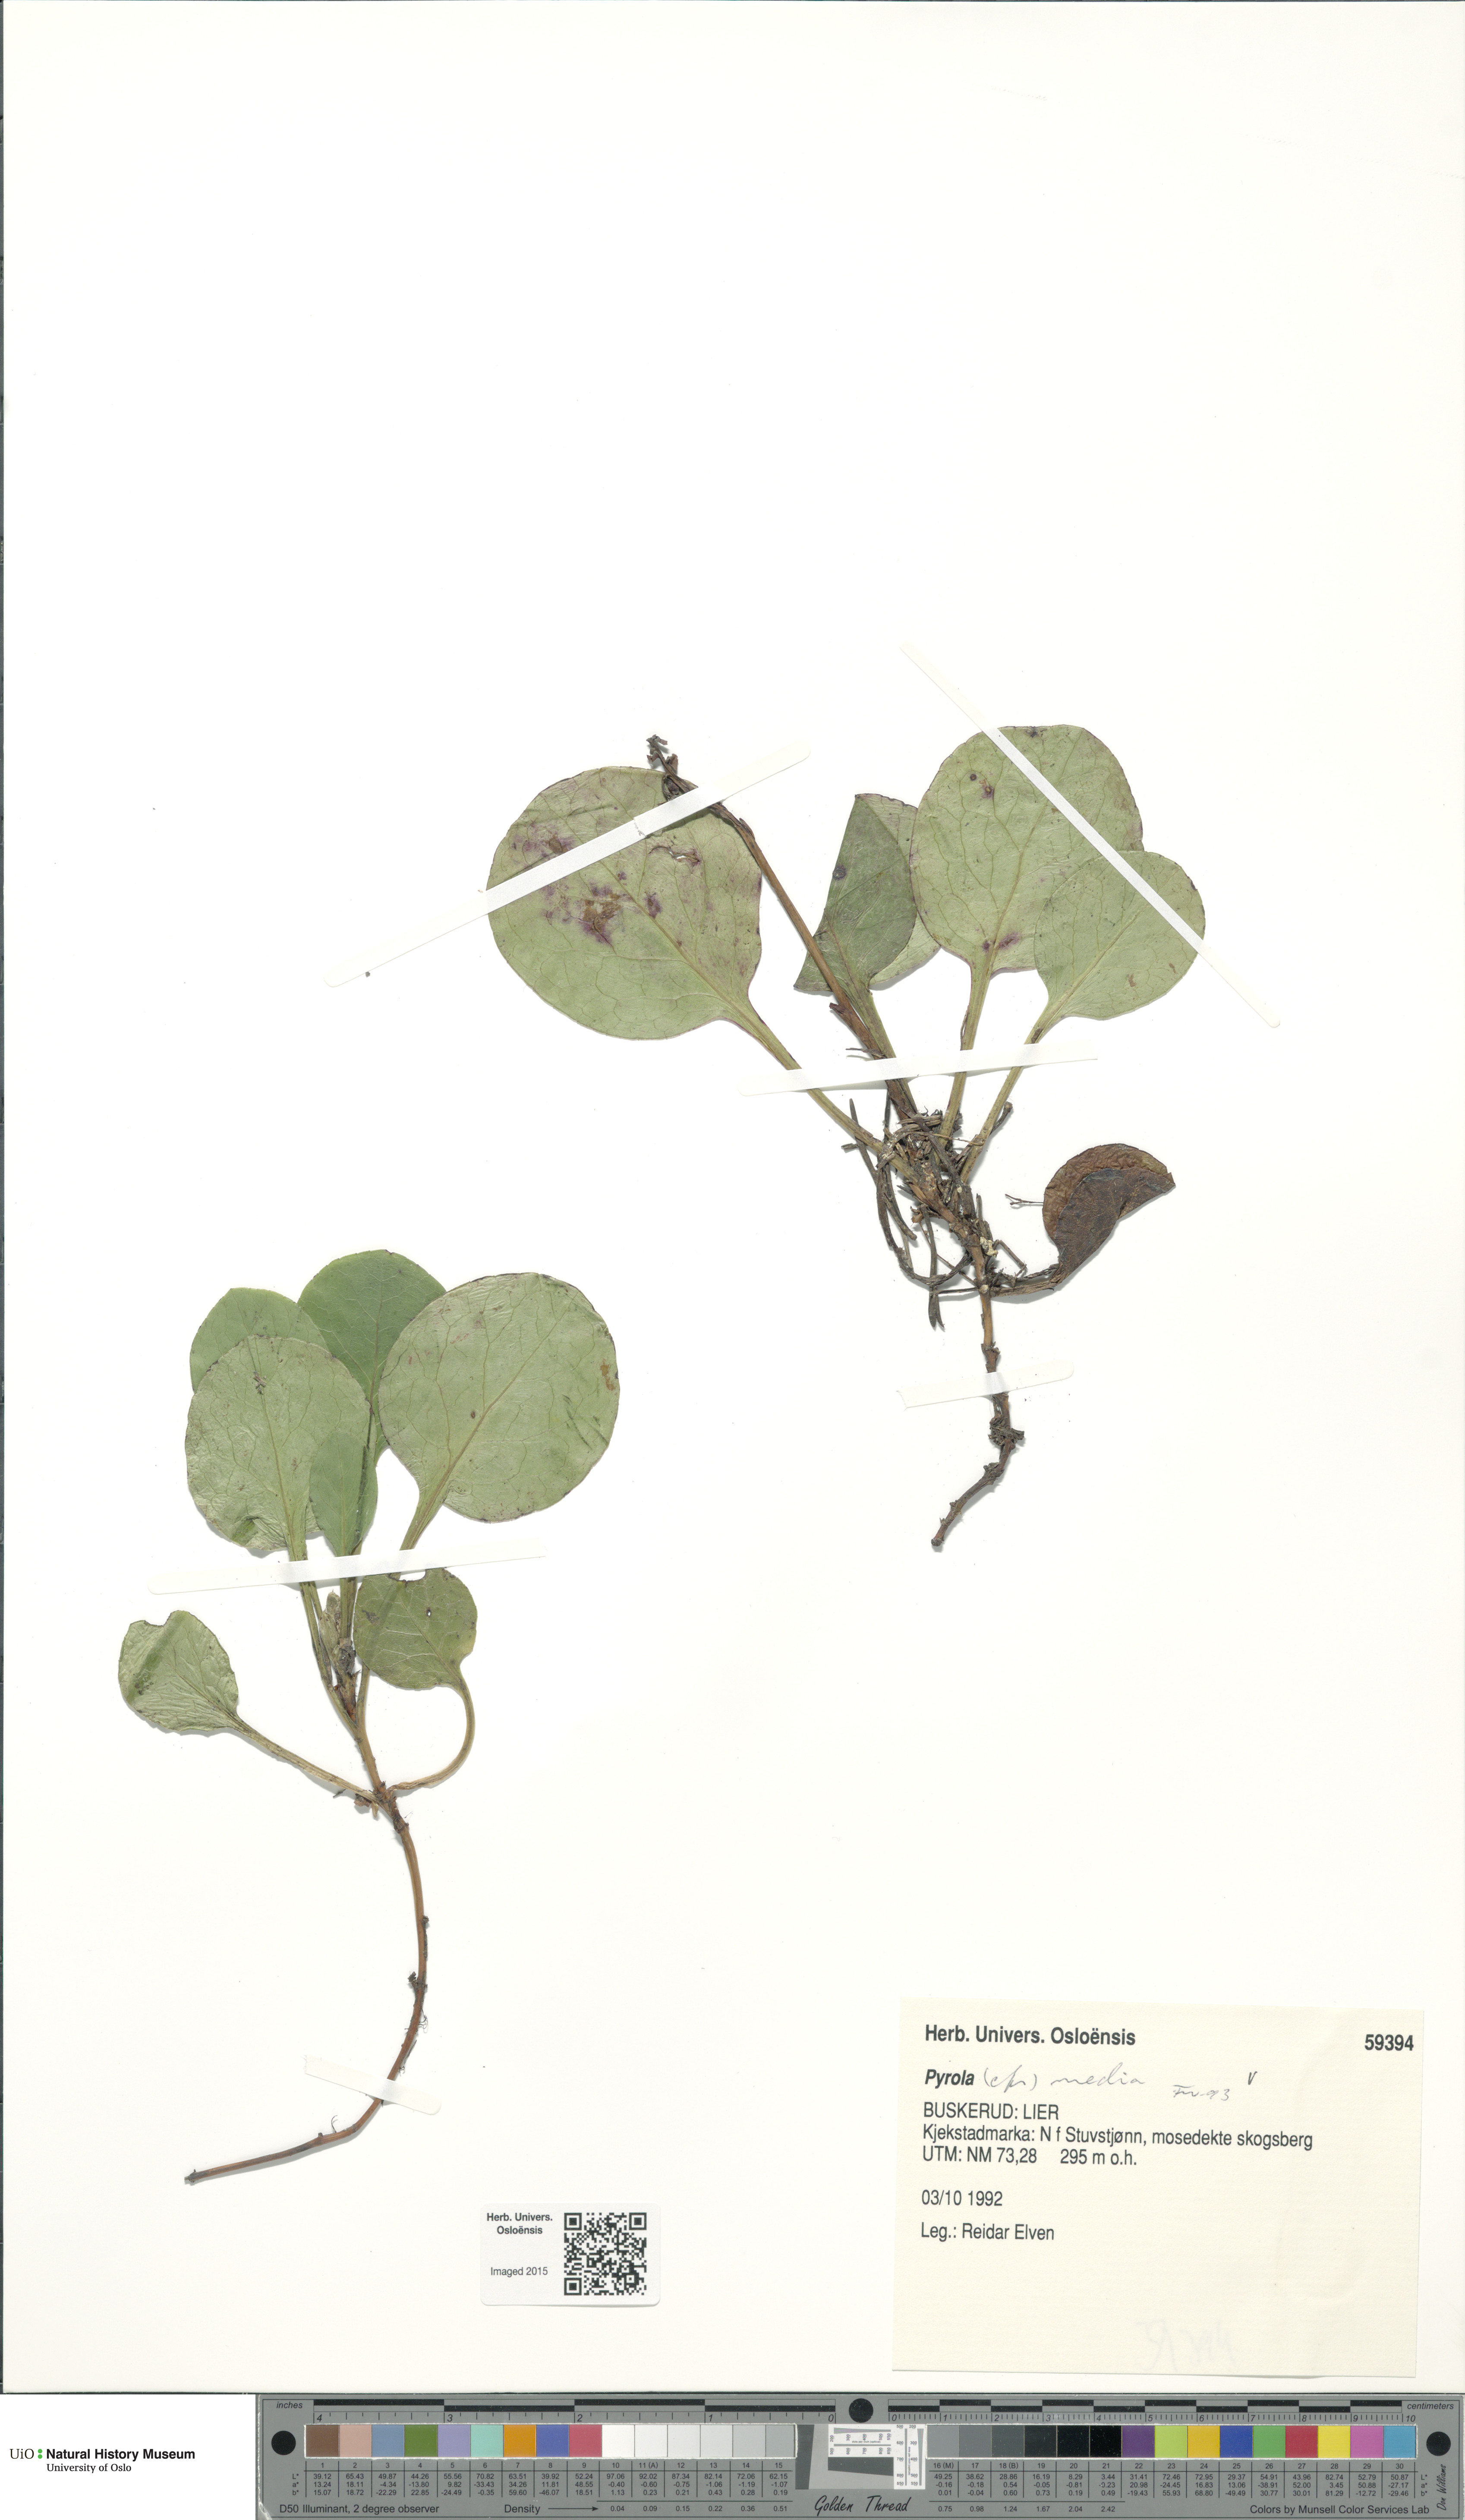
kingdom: Plantae
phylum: Tracheophyta
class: Magnoliopsida
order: Ericales
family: Ericaceae
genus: Pyrola
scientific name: Pyrola media
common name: Intermediate wintergreen
